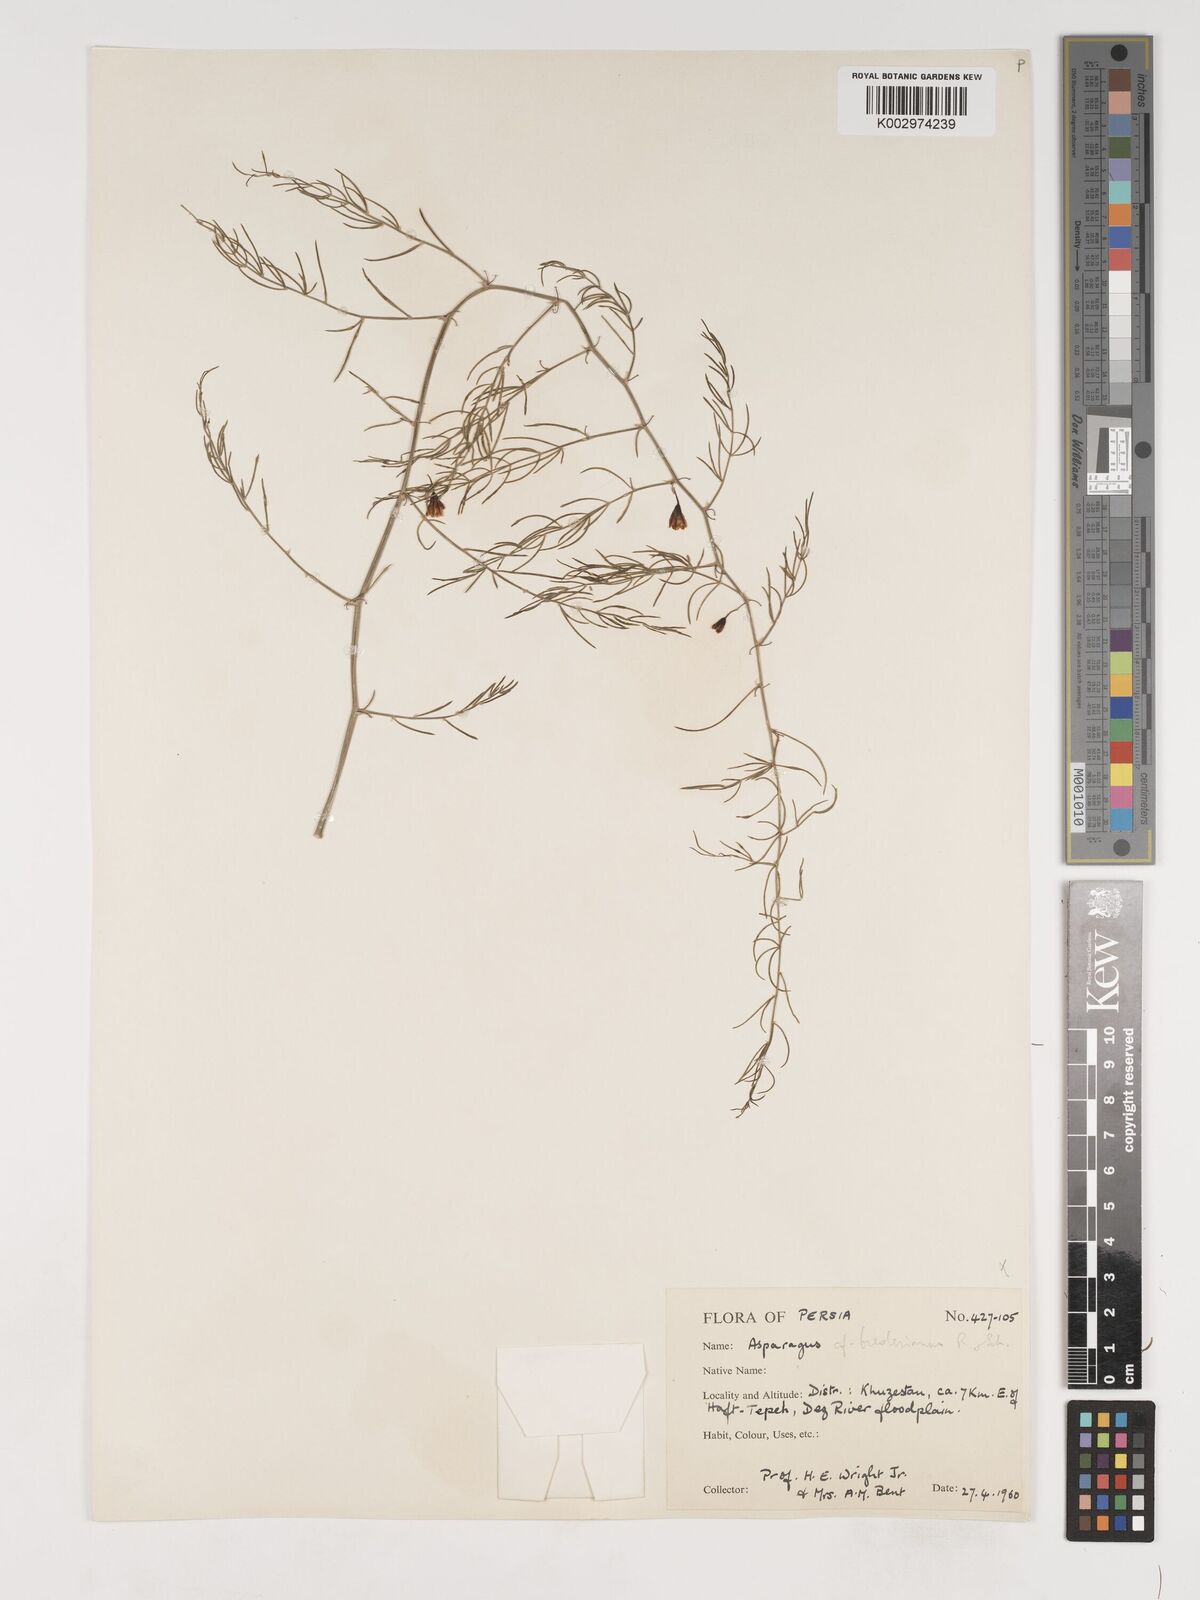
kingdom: Plantae
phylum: Tracheophyta
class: Liliopsida
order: Asparagales
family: Asparagaceae
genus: Asparagus
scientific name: Asparagus breslerianus
